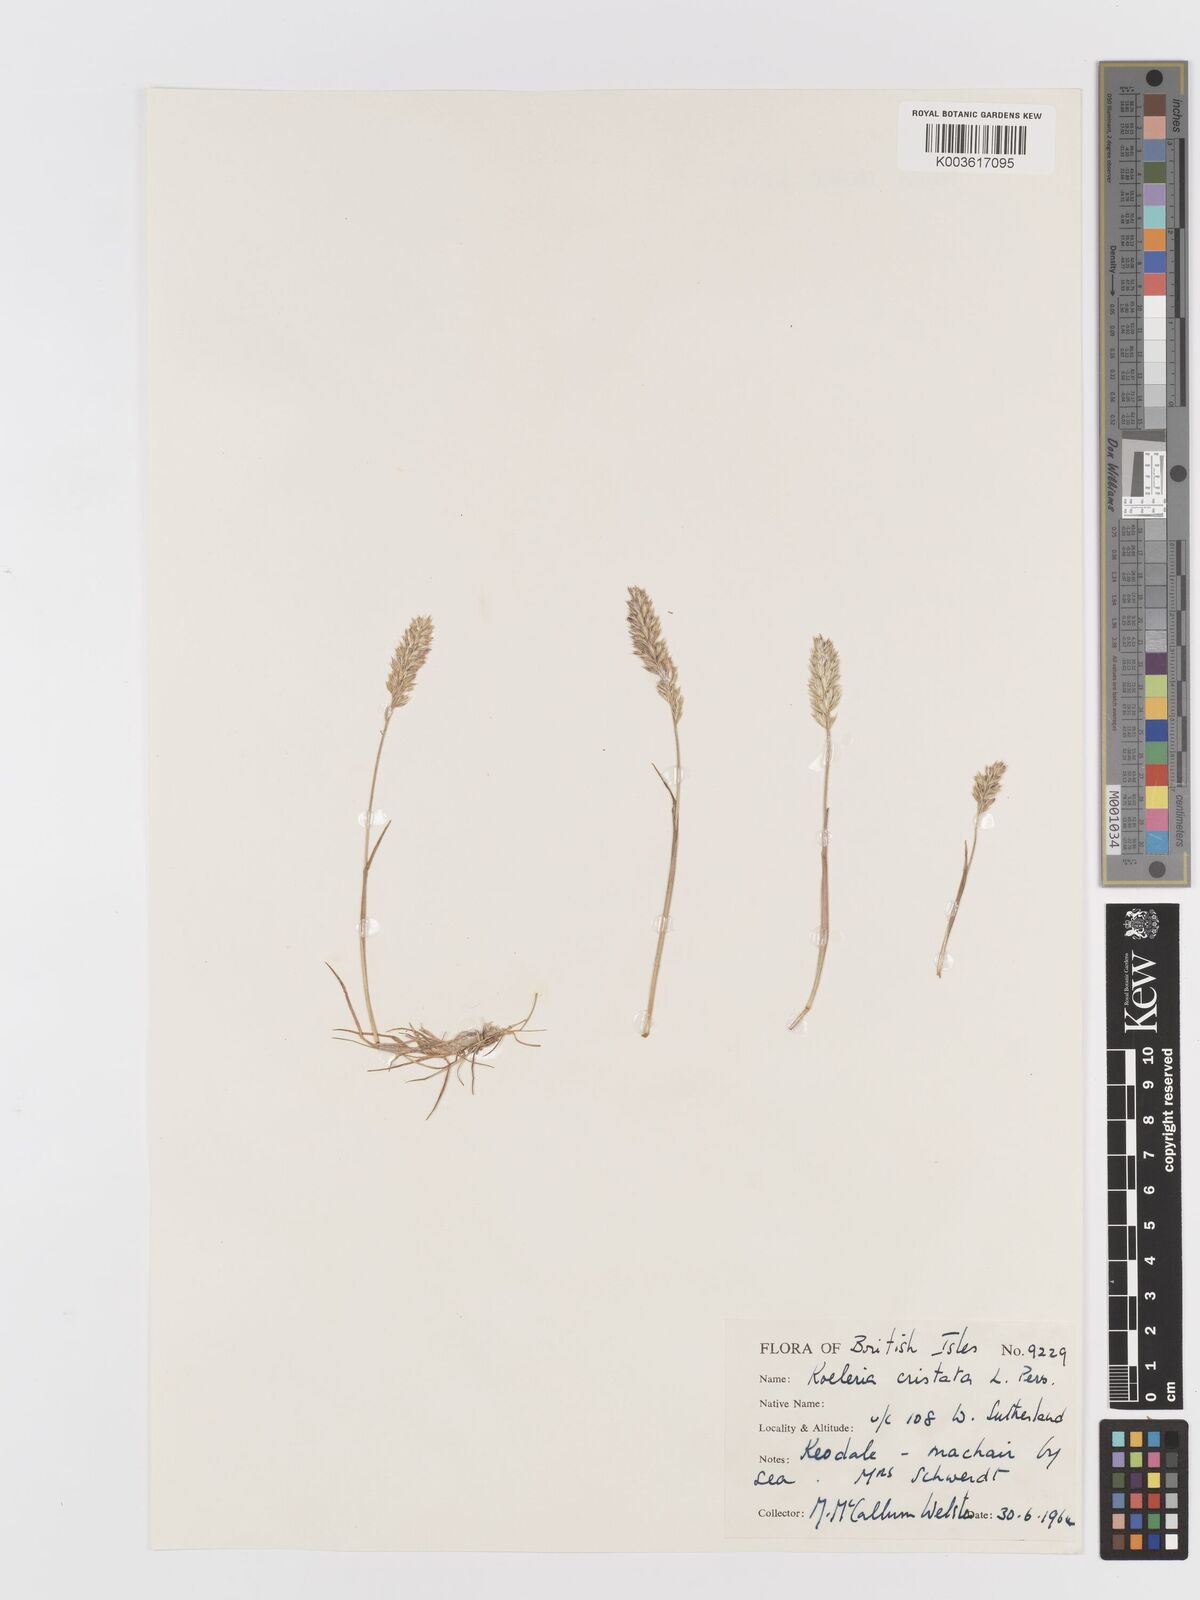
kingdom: Plantae
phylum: Tracheophyta
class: Liliopsida
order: Poales
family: Poaceae
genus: Koeleria
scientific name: Koeleria macrantha
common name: Crested hair-grass
